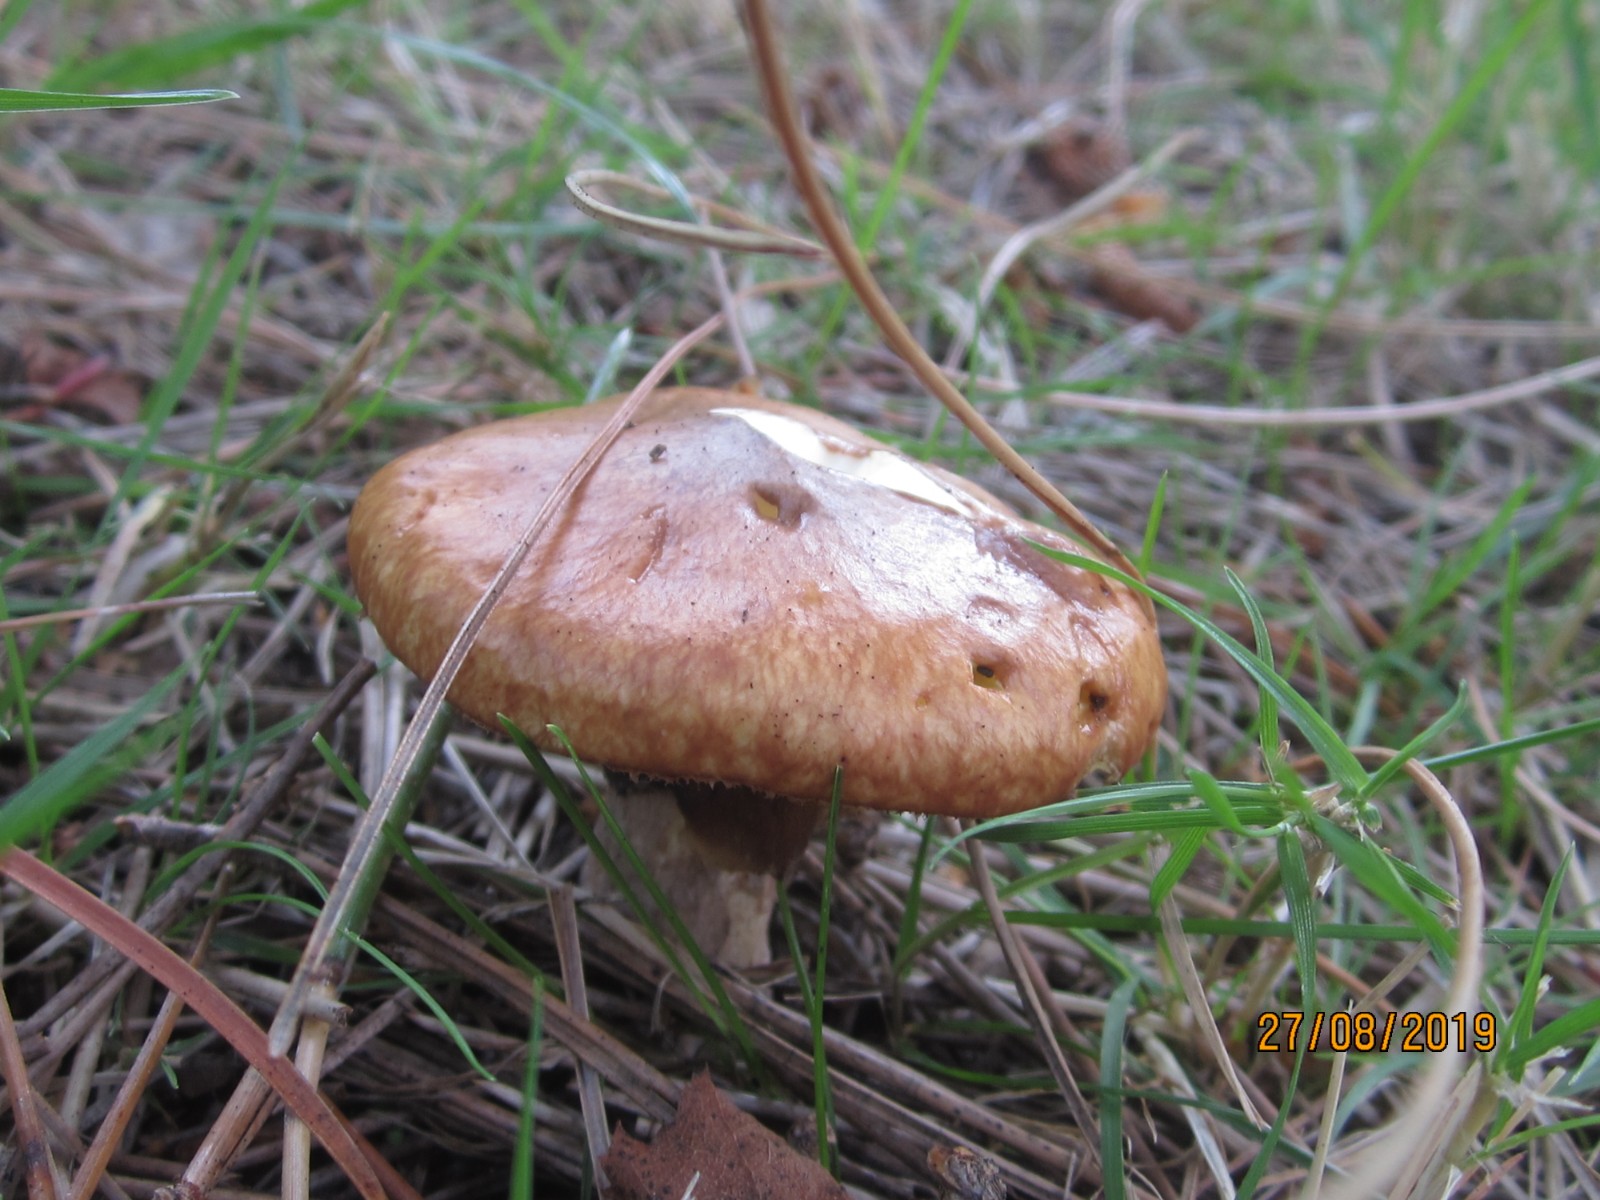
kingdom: Fungi
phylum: Basidiomycota
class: Agaricomycetes
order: Boletales
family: Suillaceae
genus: Suillus
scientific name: Suillus luteus
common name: brungul slimrørhat
